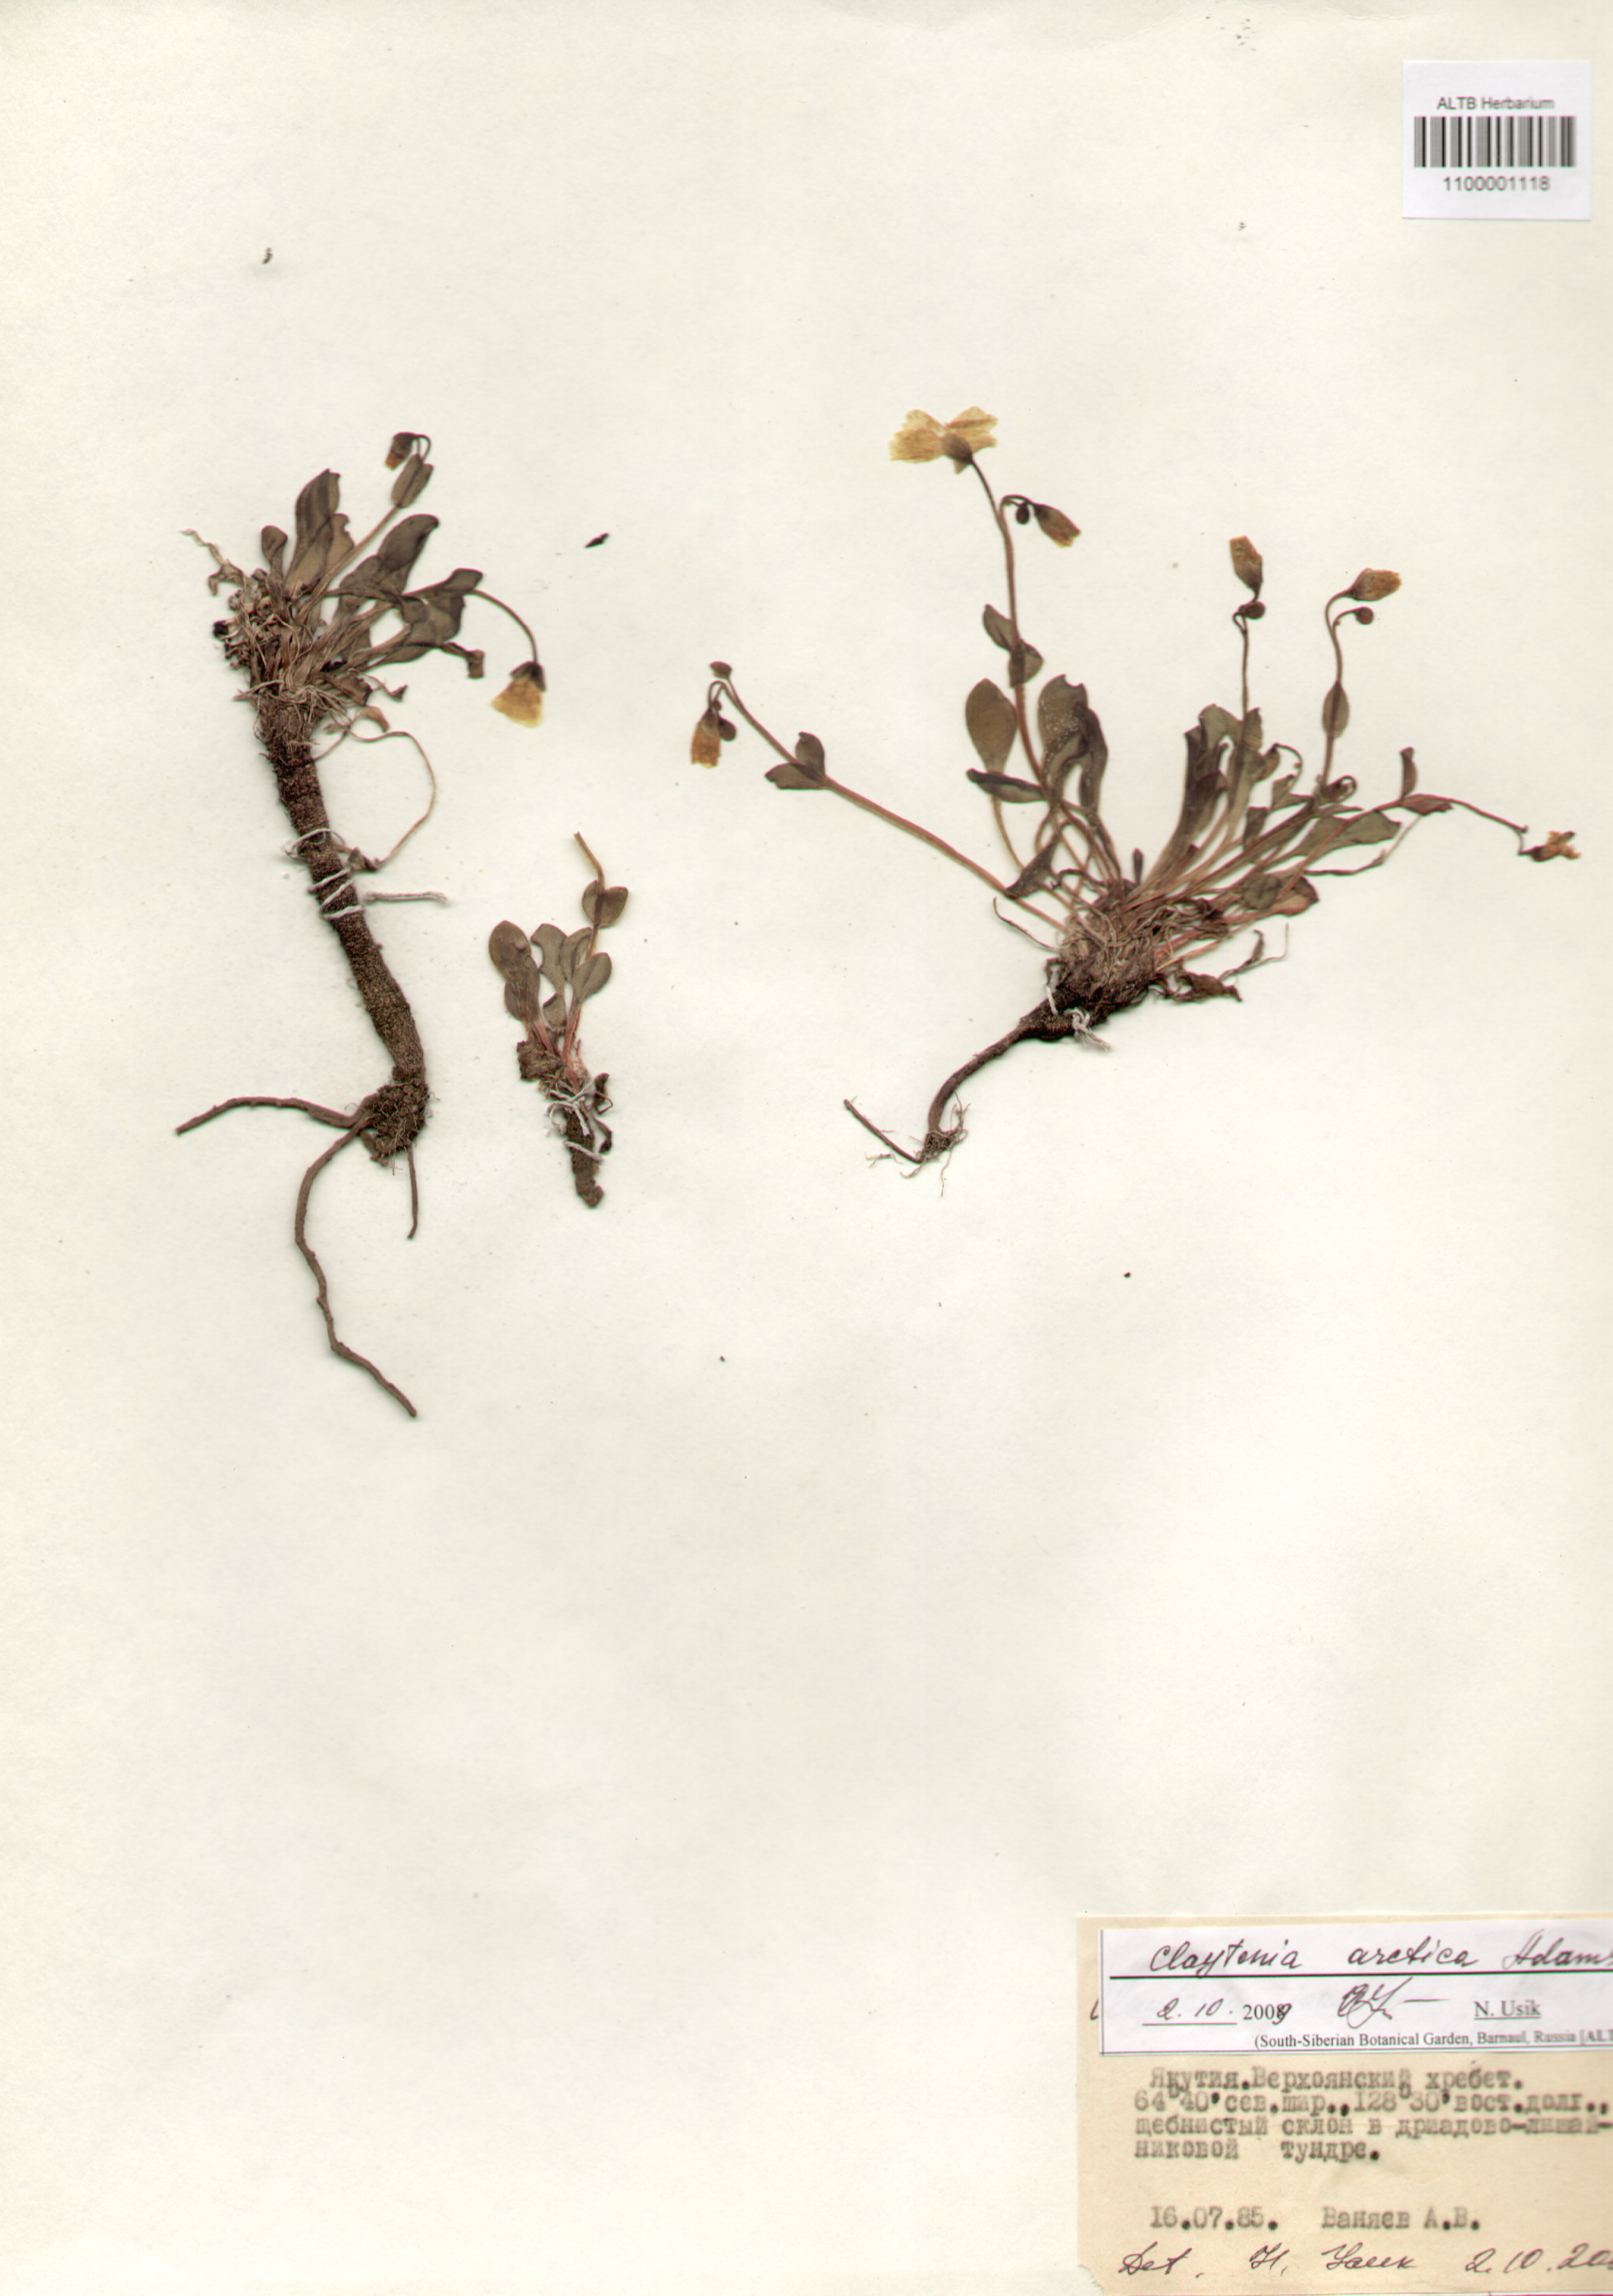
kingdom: Plantae
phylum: Tracheophyta
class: Magnoliopsida
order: Caryophyllales
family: Montiaceae
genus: Claytonia
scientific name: Claytonia arctica
